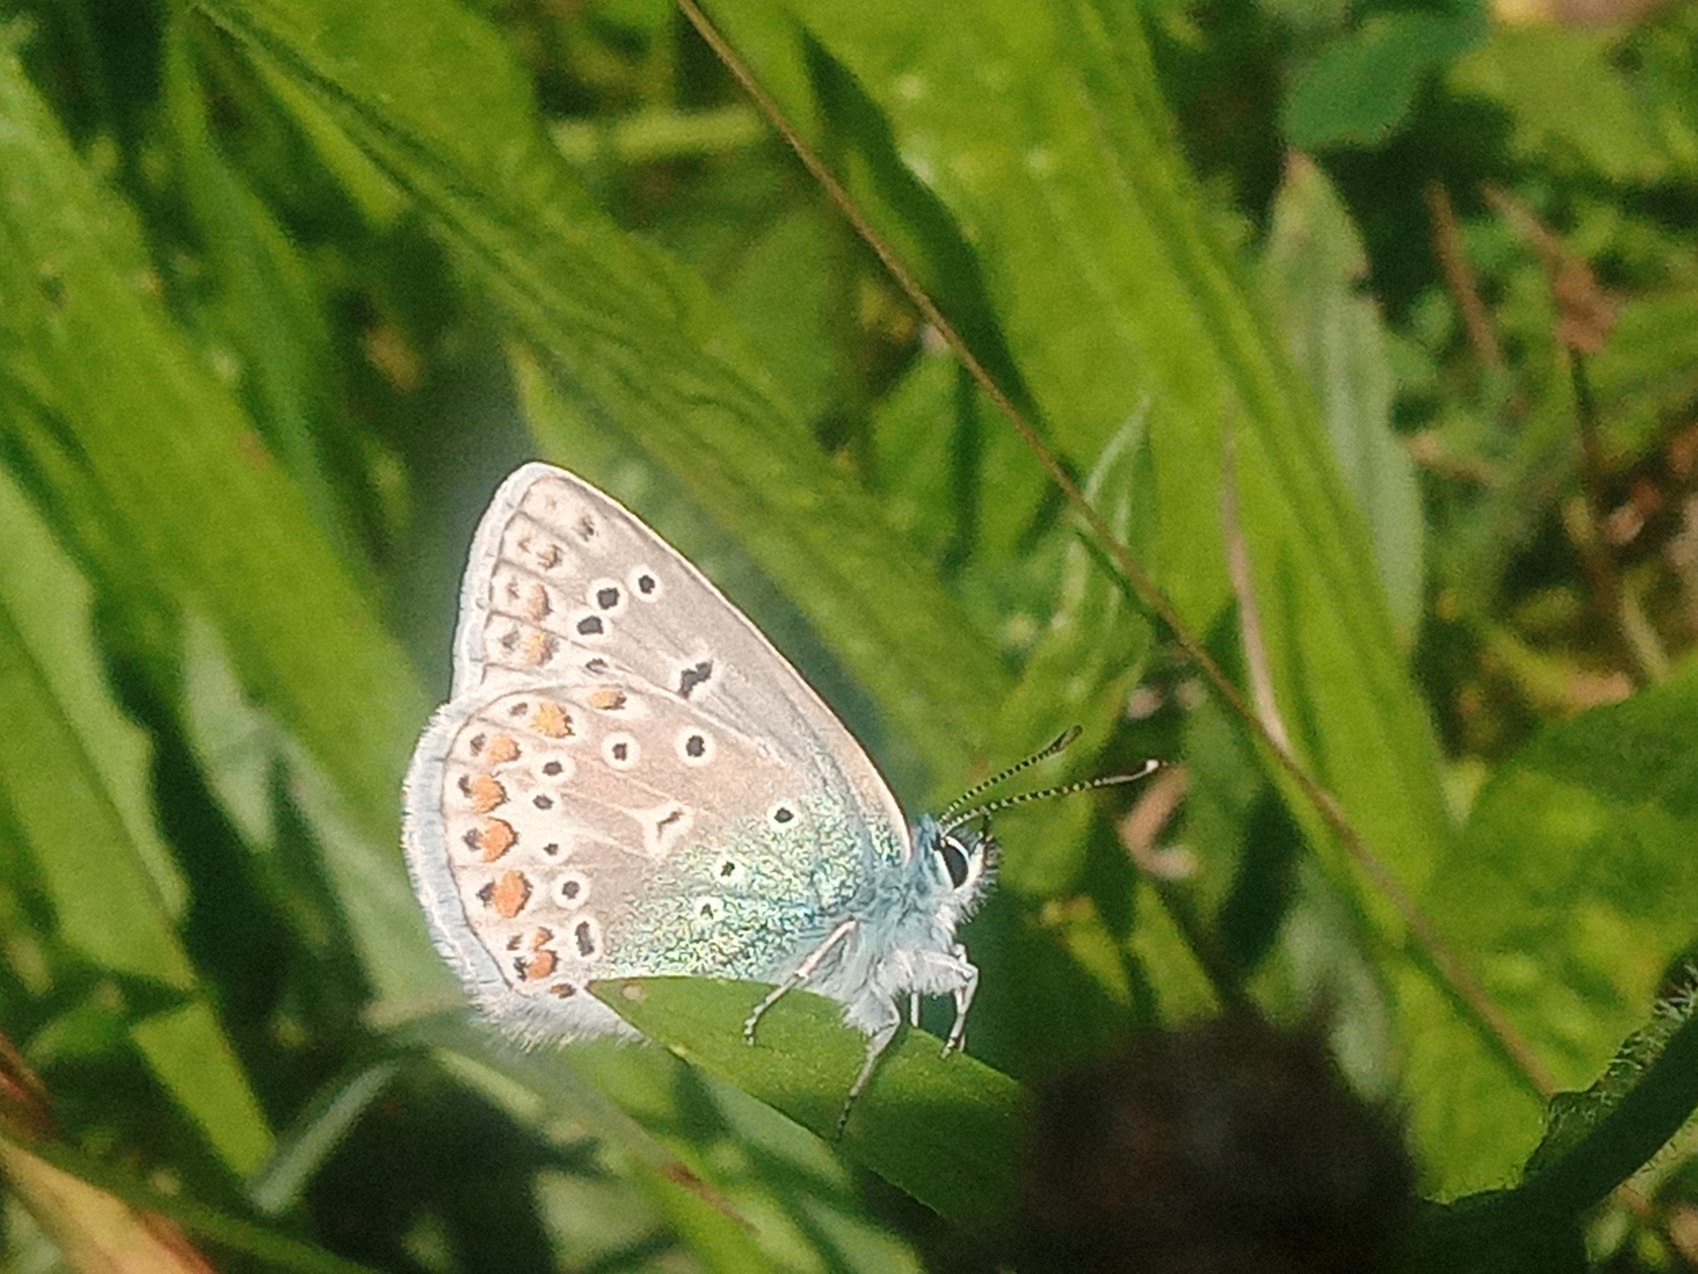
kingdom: Animalia
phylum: Arthropoda
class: Insecta
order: Lepidoptera
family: Lycaenidae
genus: Polyommatus
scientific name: Polyommatus icarus
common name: Almindelig blåfugl
